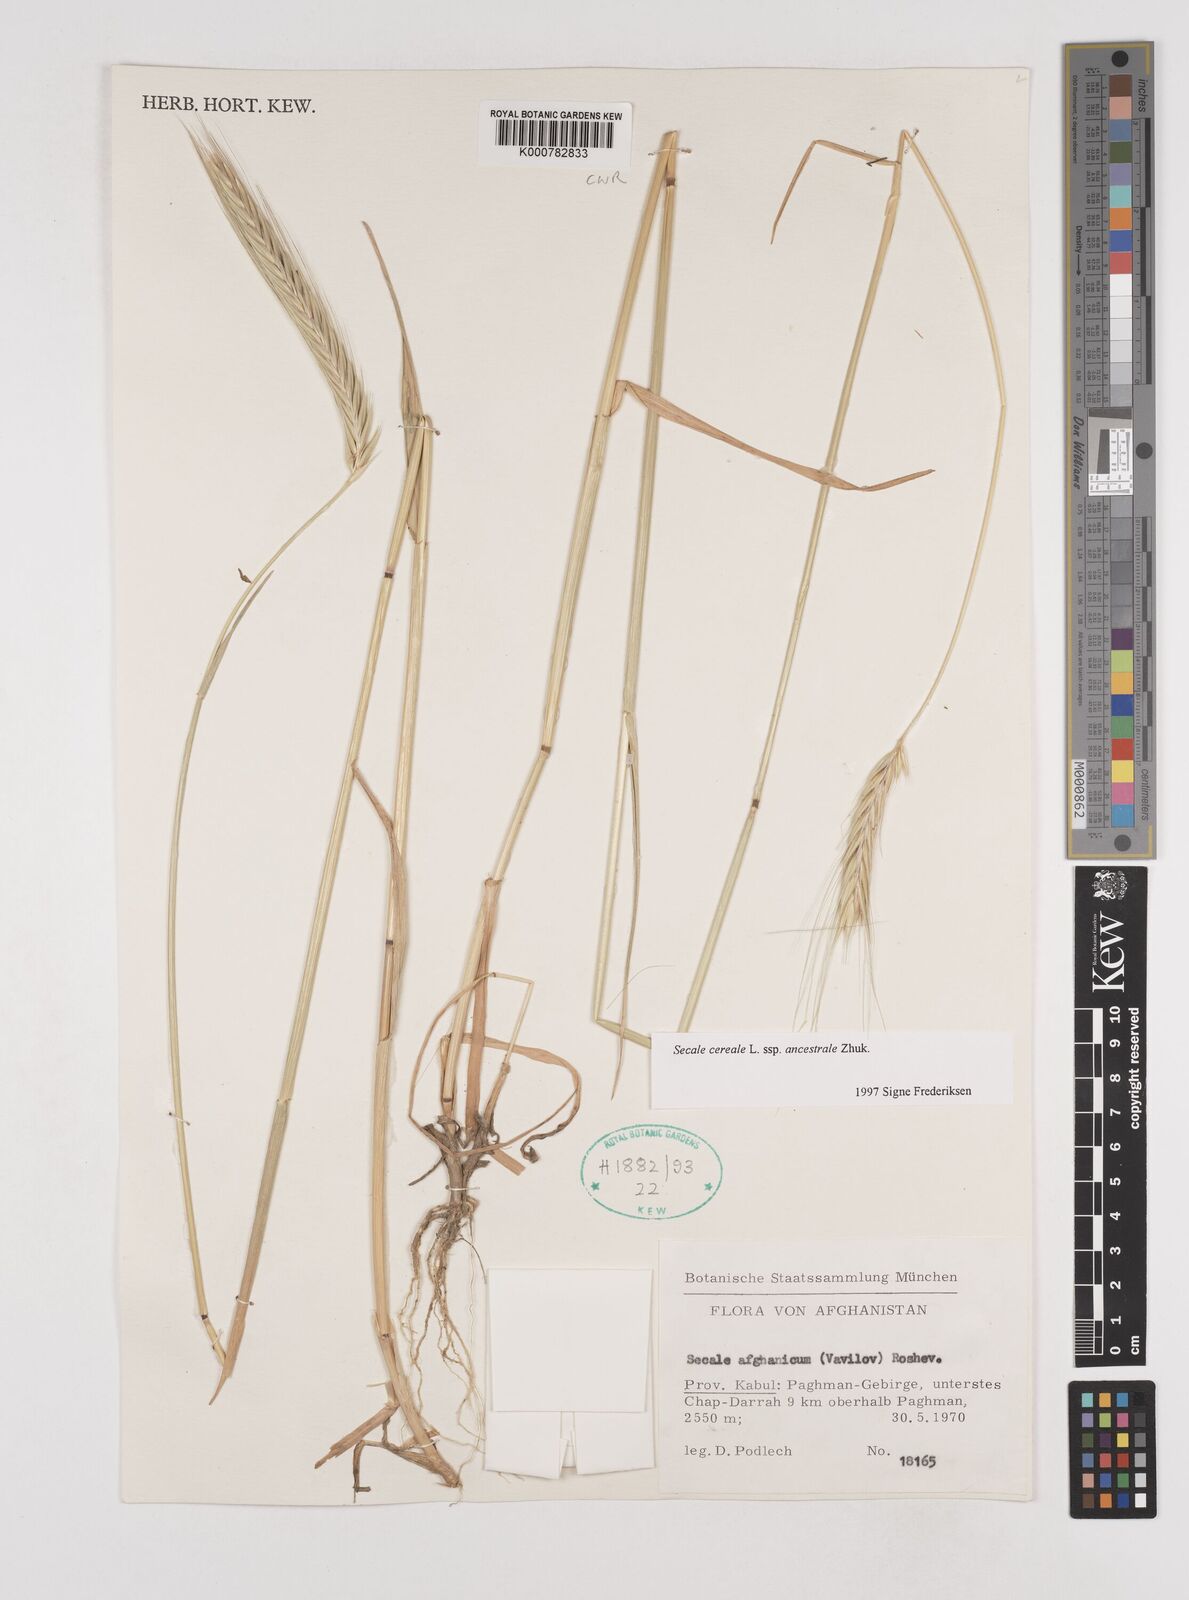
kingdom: Plantae
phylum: Tracheophyta
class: Liliopsida
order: Poales
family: Poaceae
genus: Secale
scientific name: Secale cereale
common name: Rye
